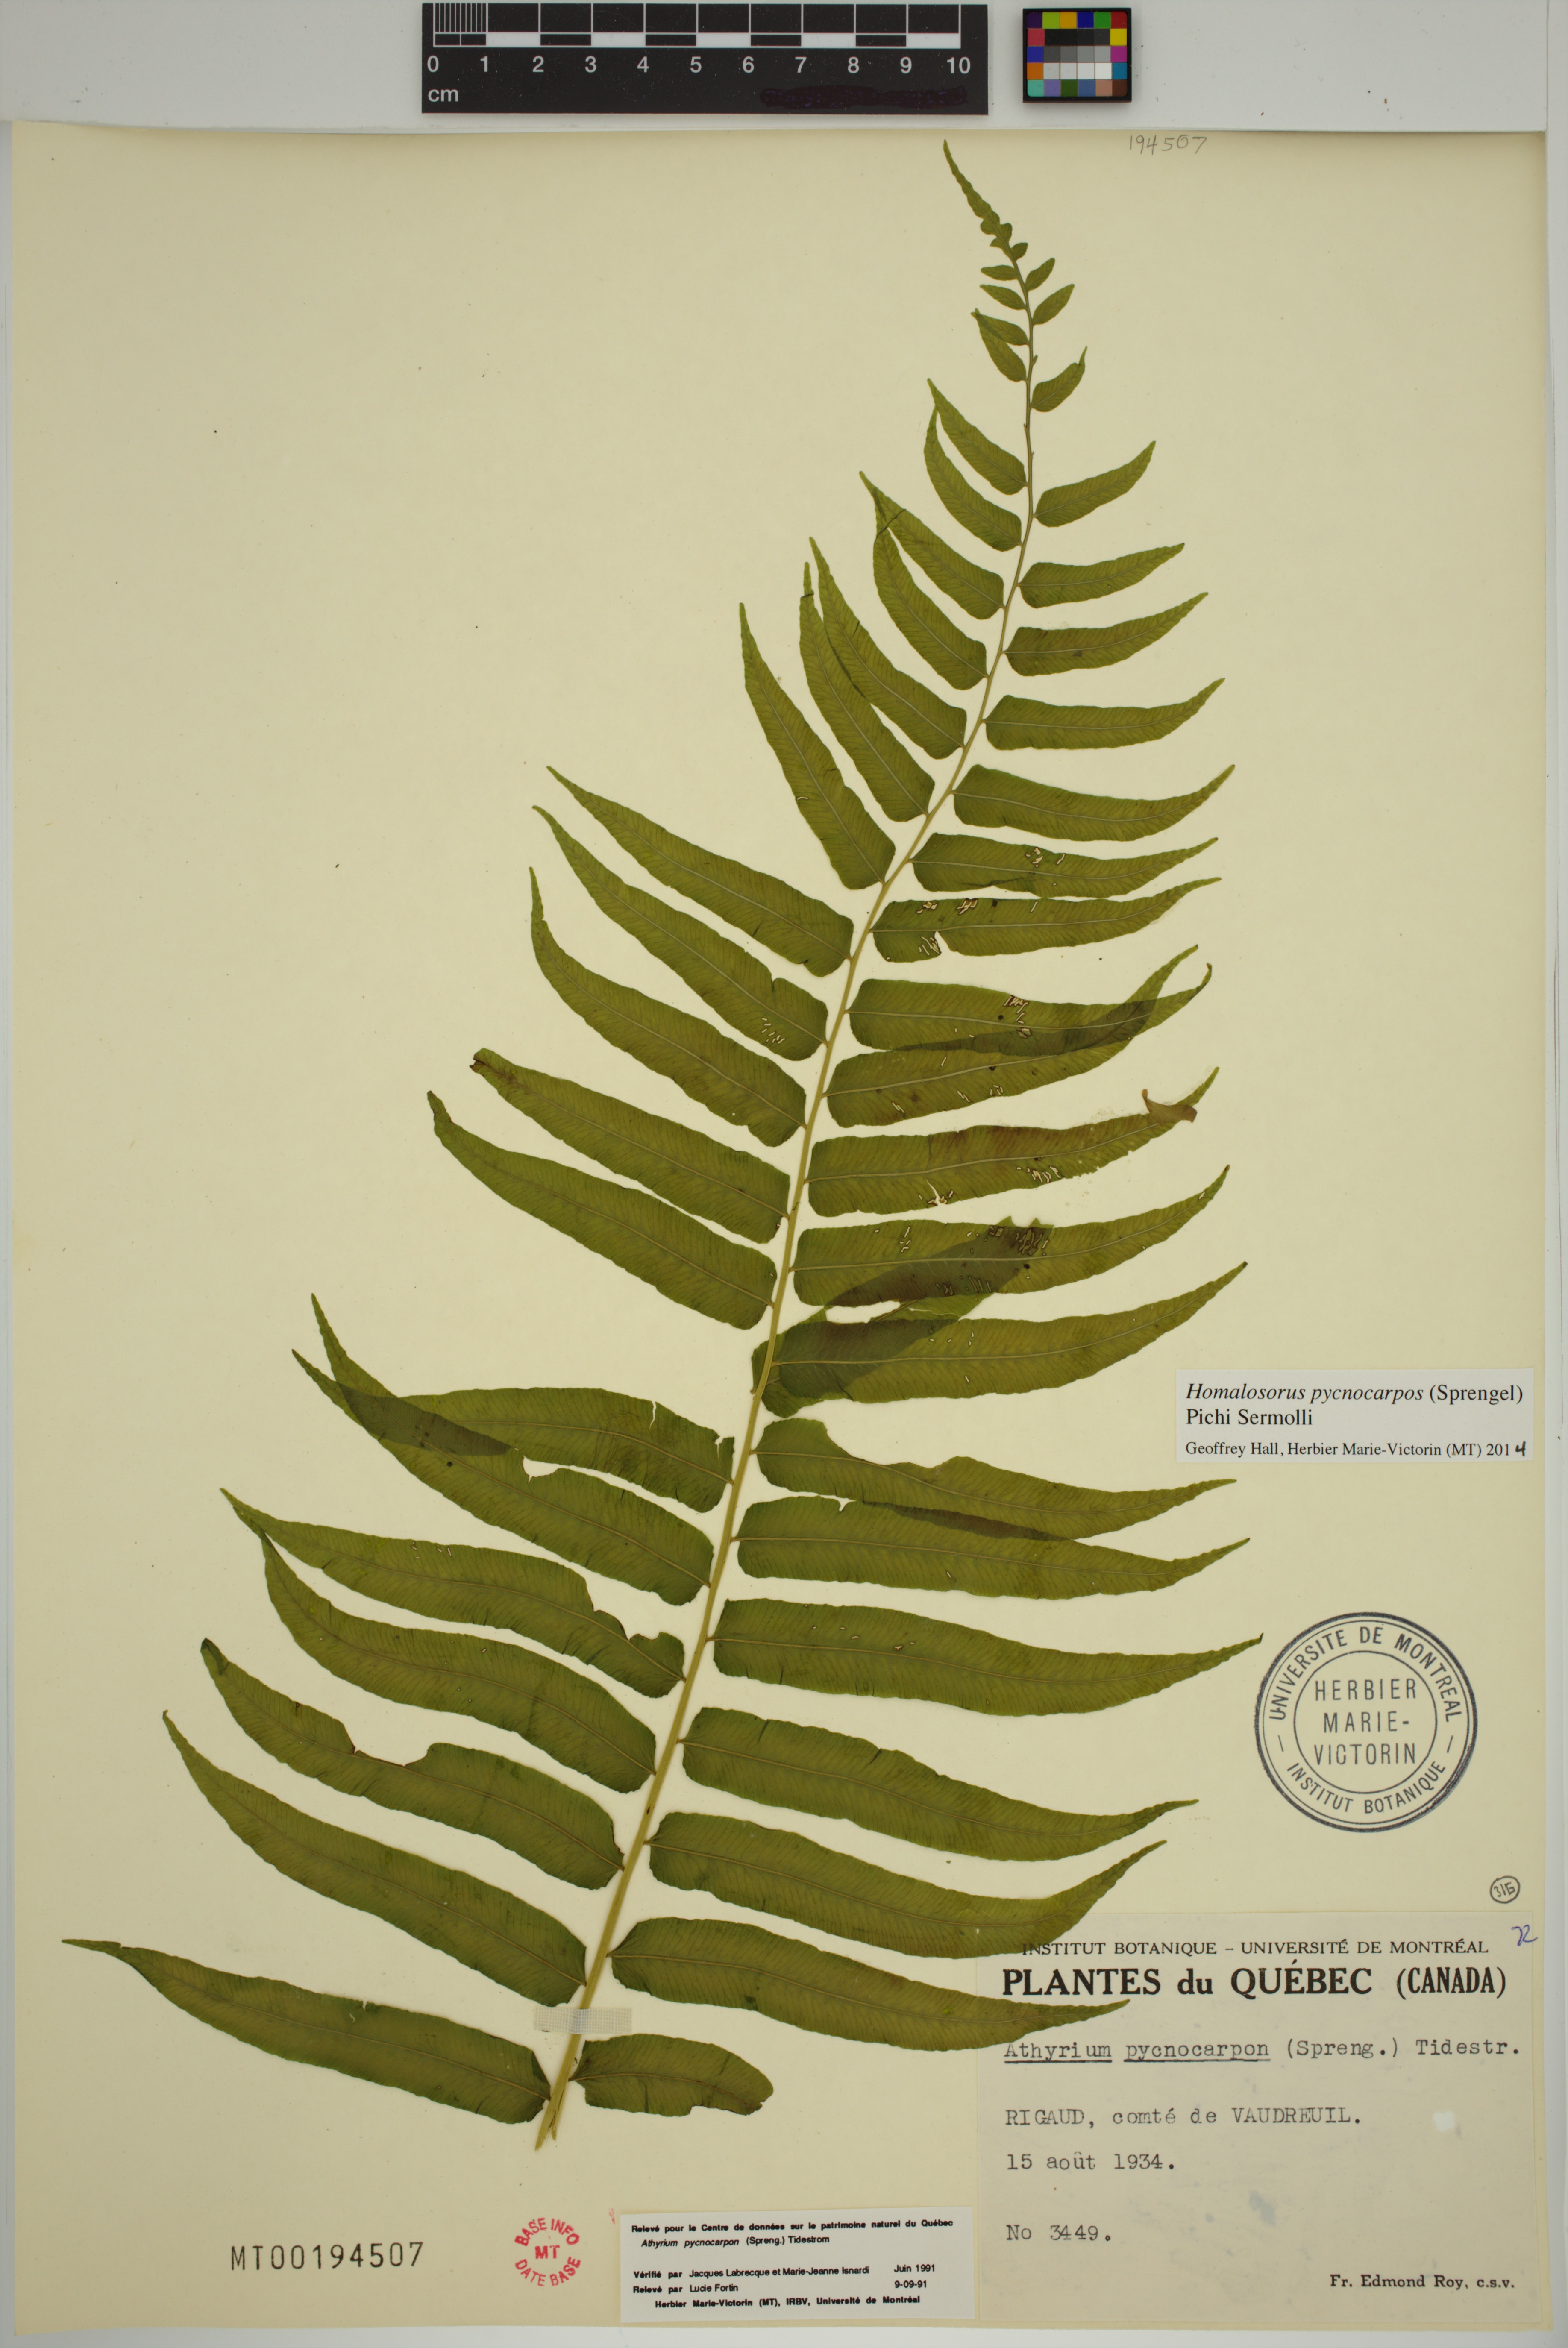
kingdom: Plantae
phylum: Tracheophyta
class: Polypodiopsida
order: Polypodiales
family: Diplaziopsidaceae
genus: Homalosorus
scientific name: Homalosorus pycnocarpos
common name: Glade fern
